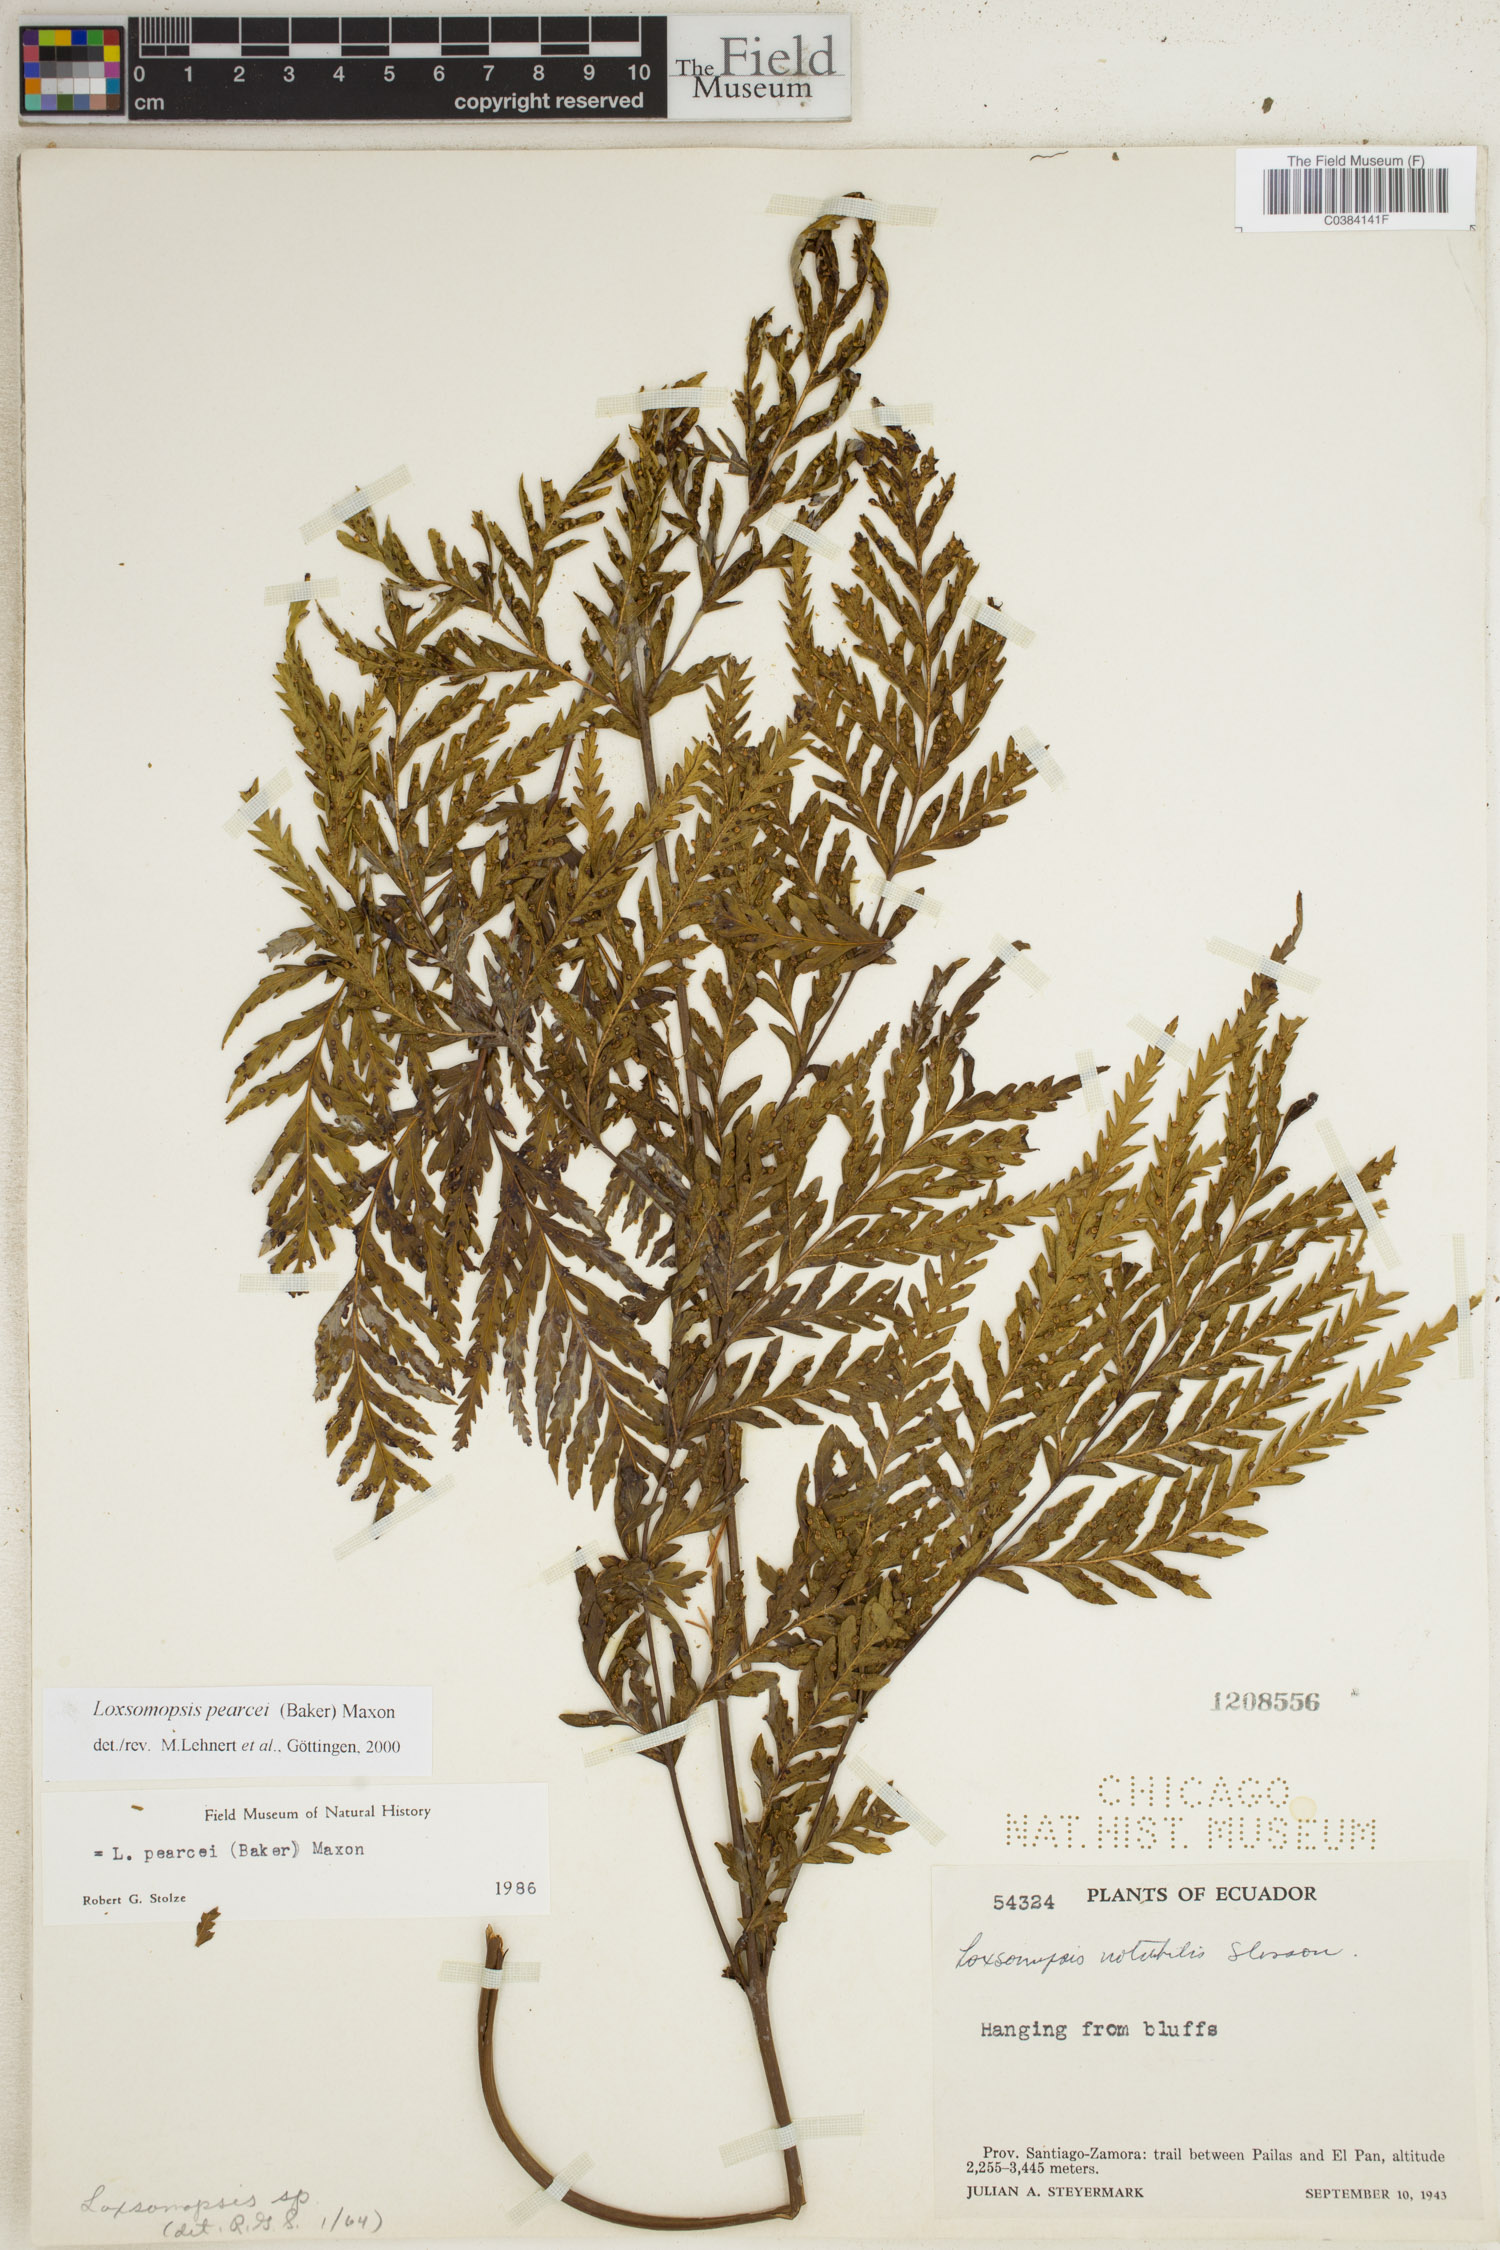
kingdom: Plantae
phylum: Tracheophyta
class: Polypodiopsida
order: Cyatheales
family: Loxsomataceae
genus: Loxsomopsis
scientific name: Loxsomopsis pearcei
